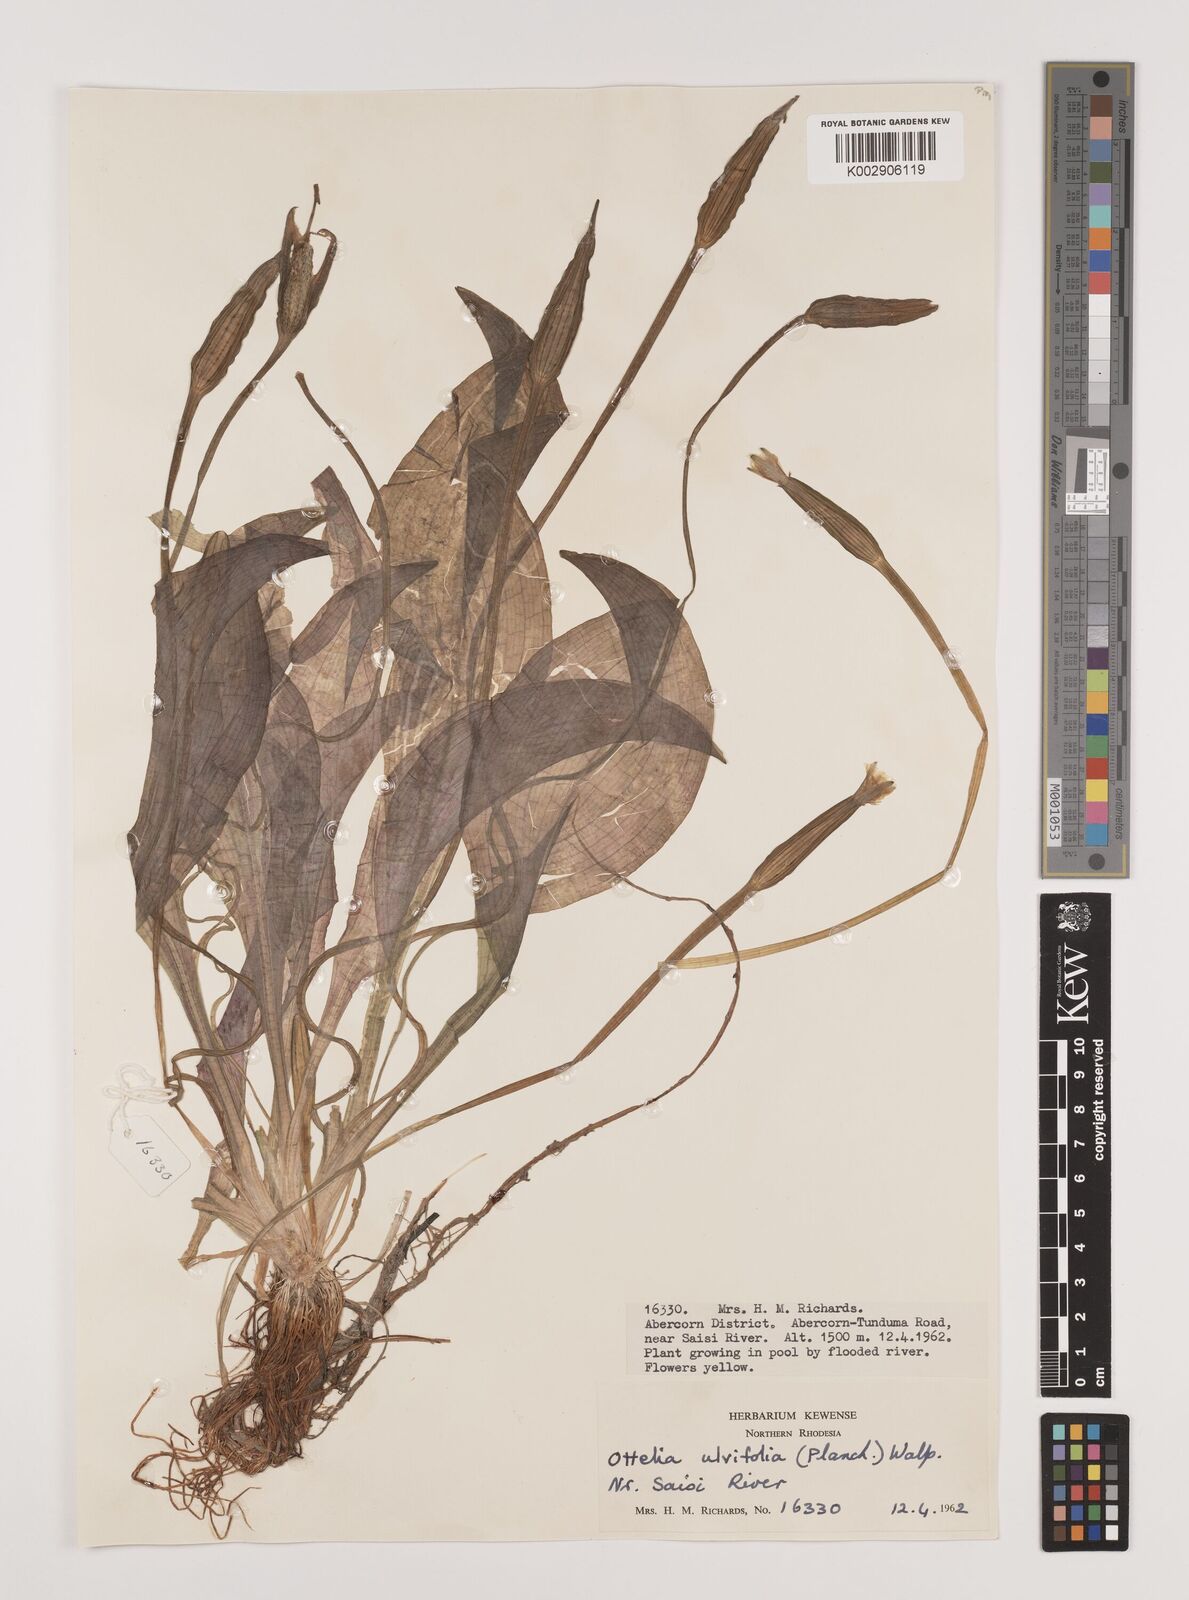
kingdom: Plantae
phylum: Tracheophyta
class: Liliopsida
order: Alismatales
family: Hydrocharitaceae
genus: Ottelia
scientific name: Ottelia ulvifolia
